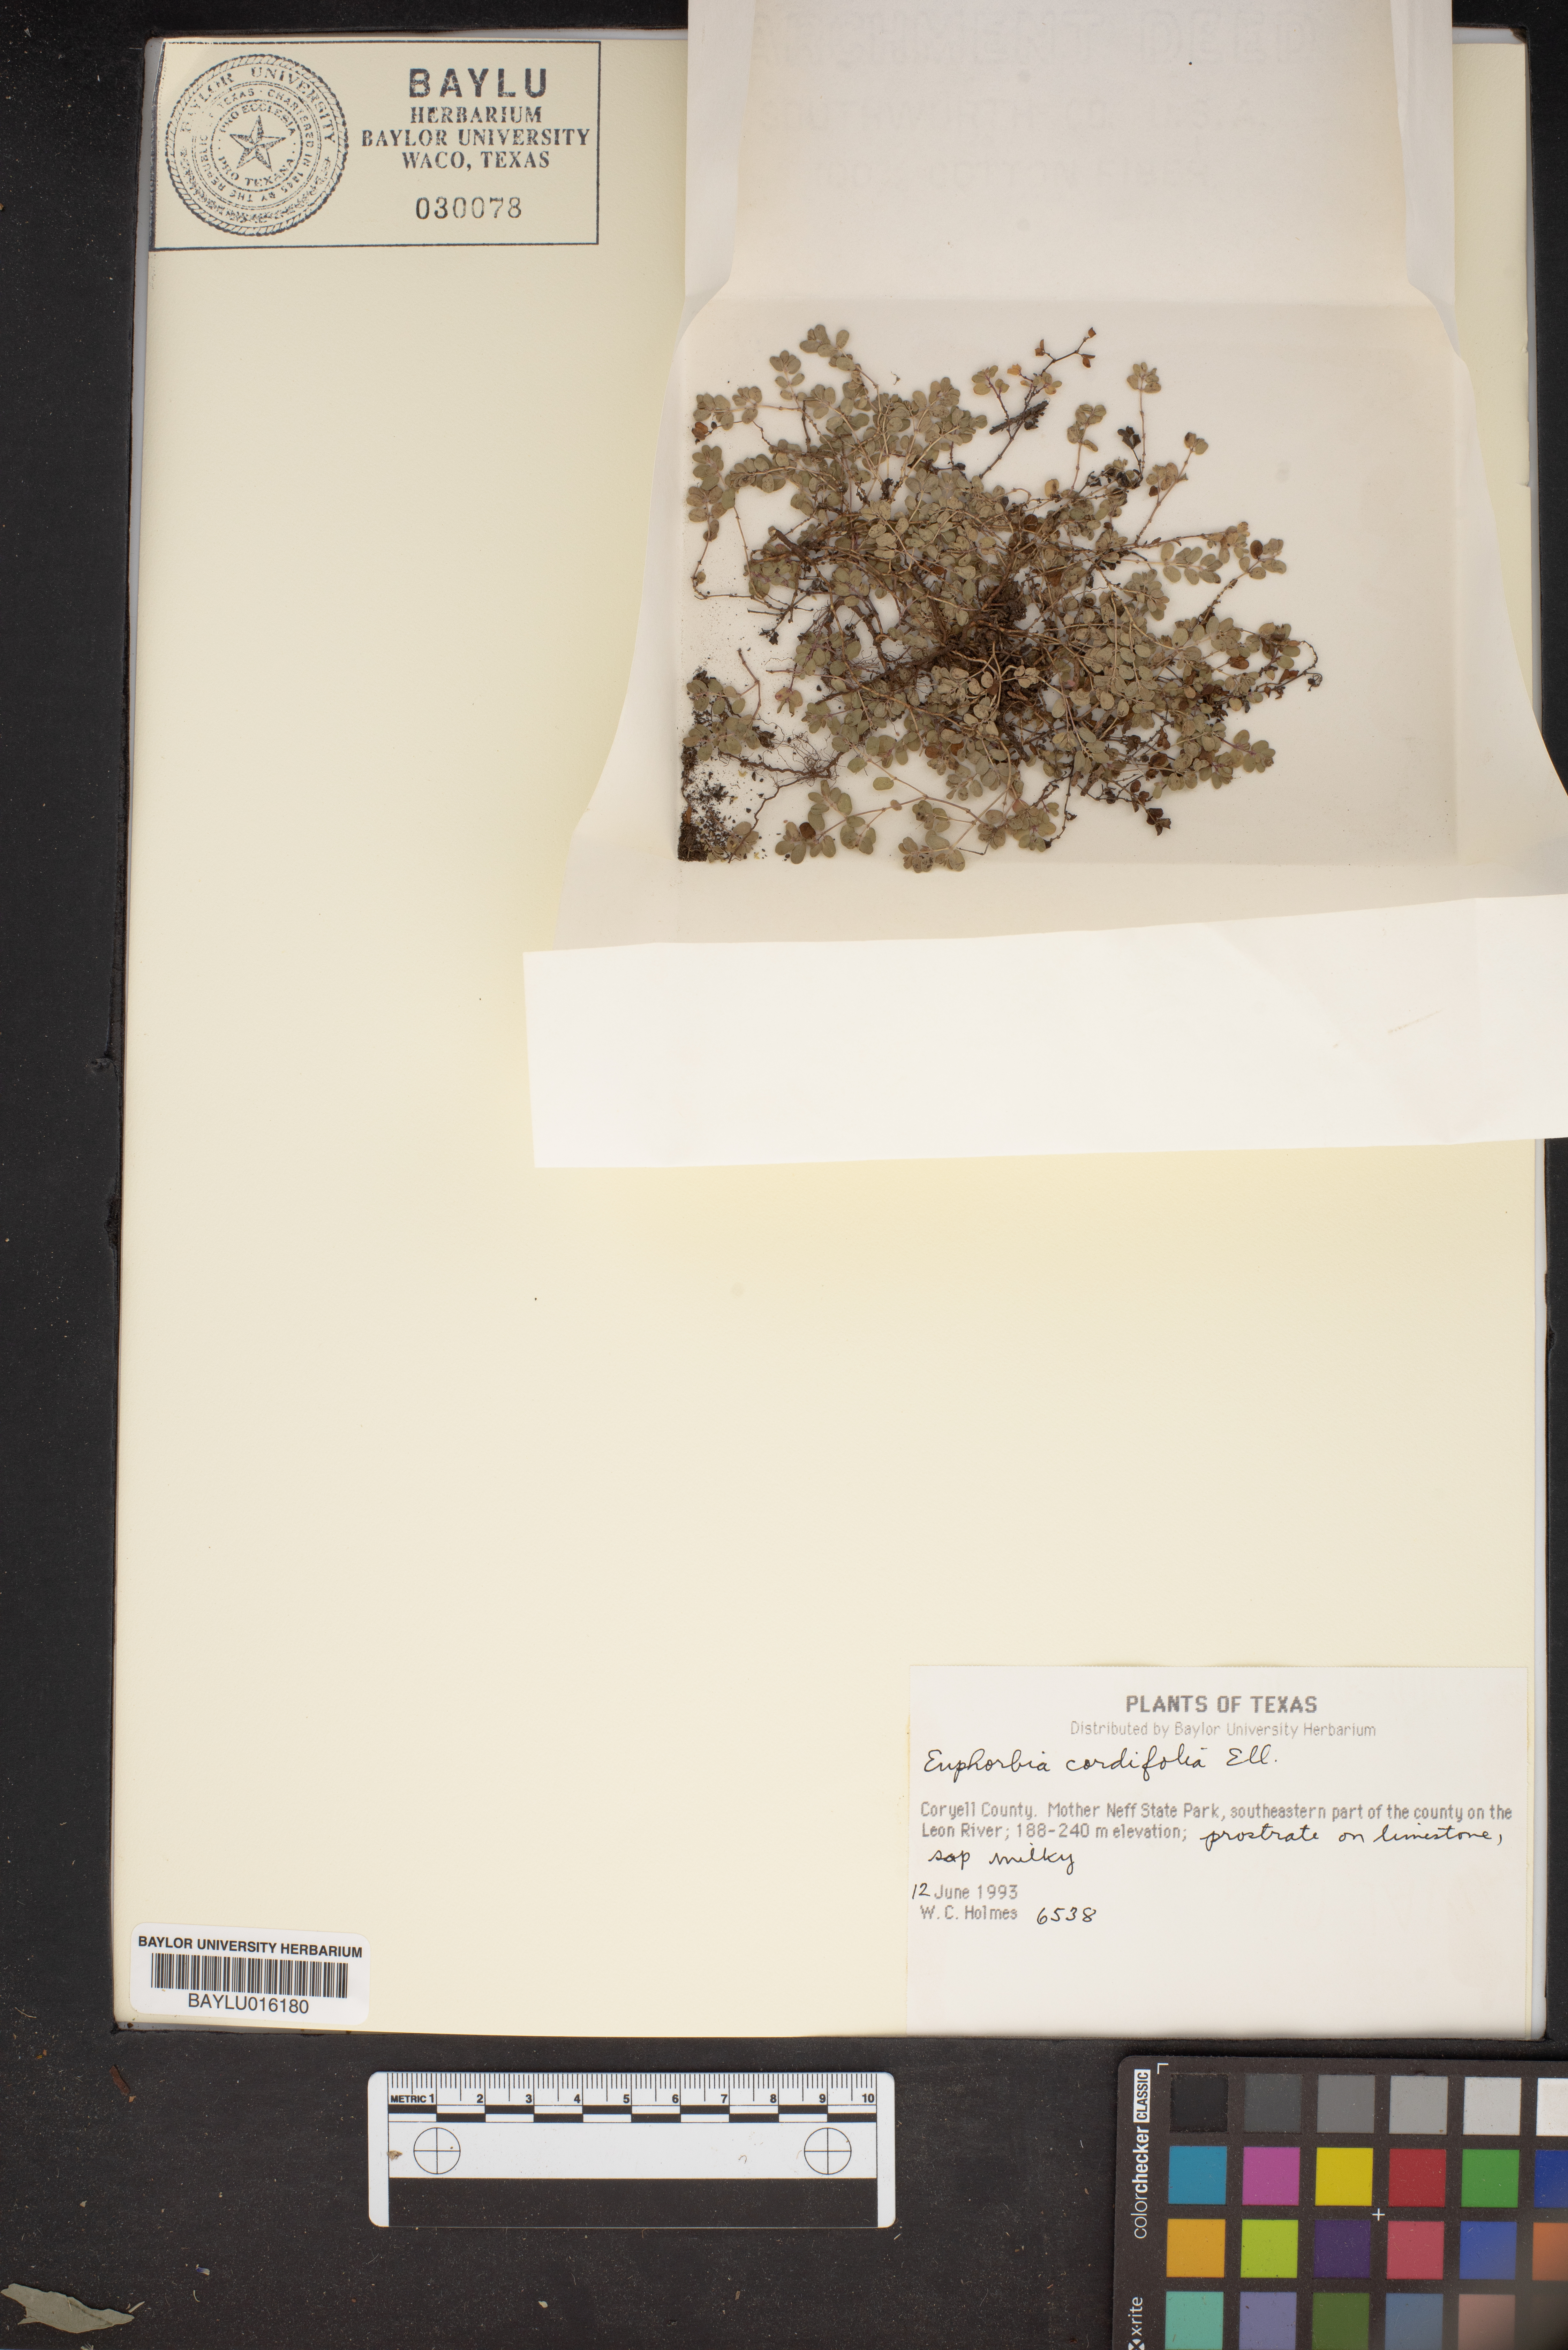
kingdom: Plantae
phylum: Tracheophyta
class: Magnoliopsida
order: Malpighiales
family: Euphorbiaceae
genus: Euphorbia
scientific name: Euphorbia cordifolia
